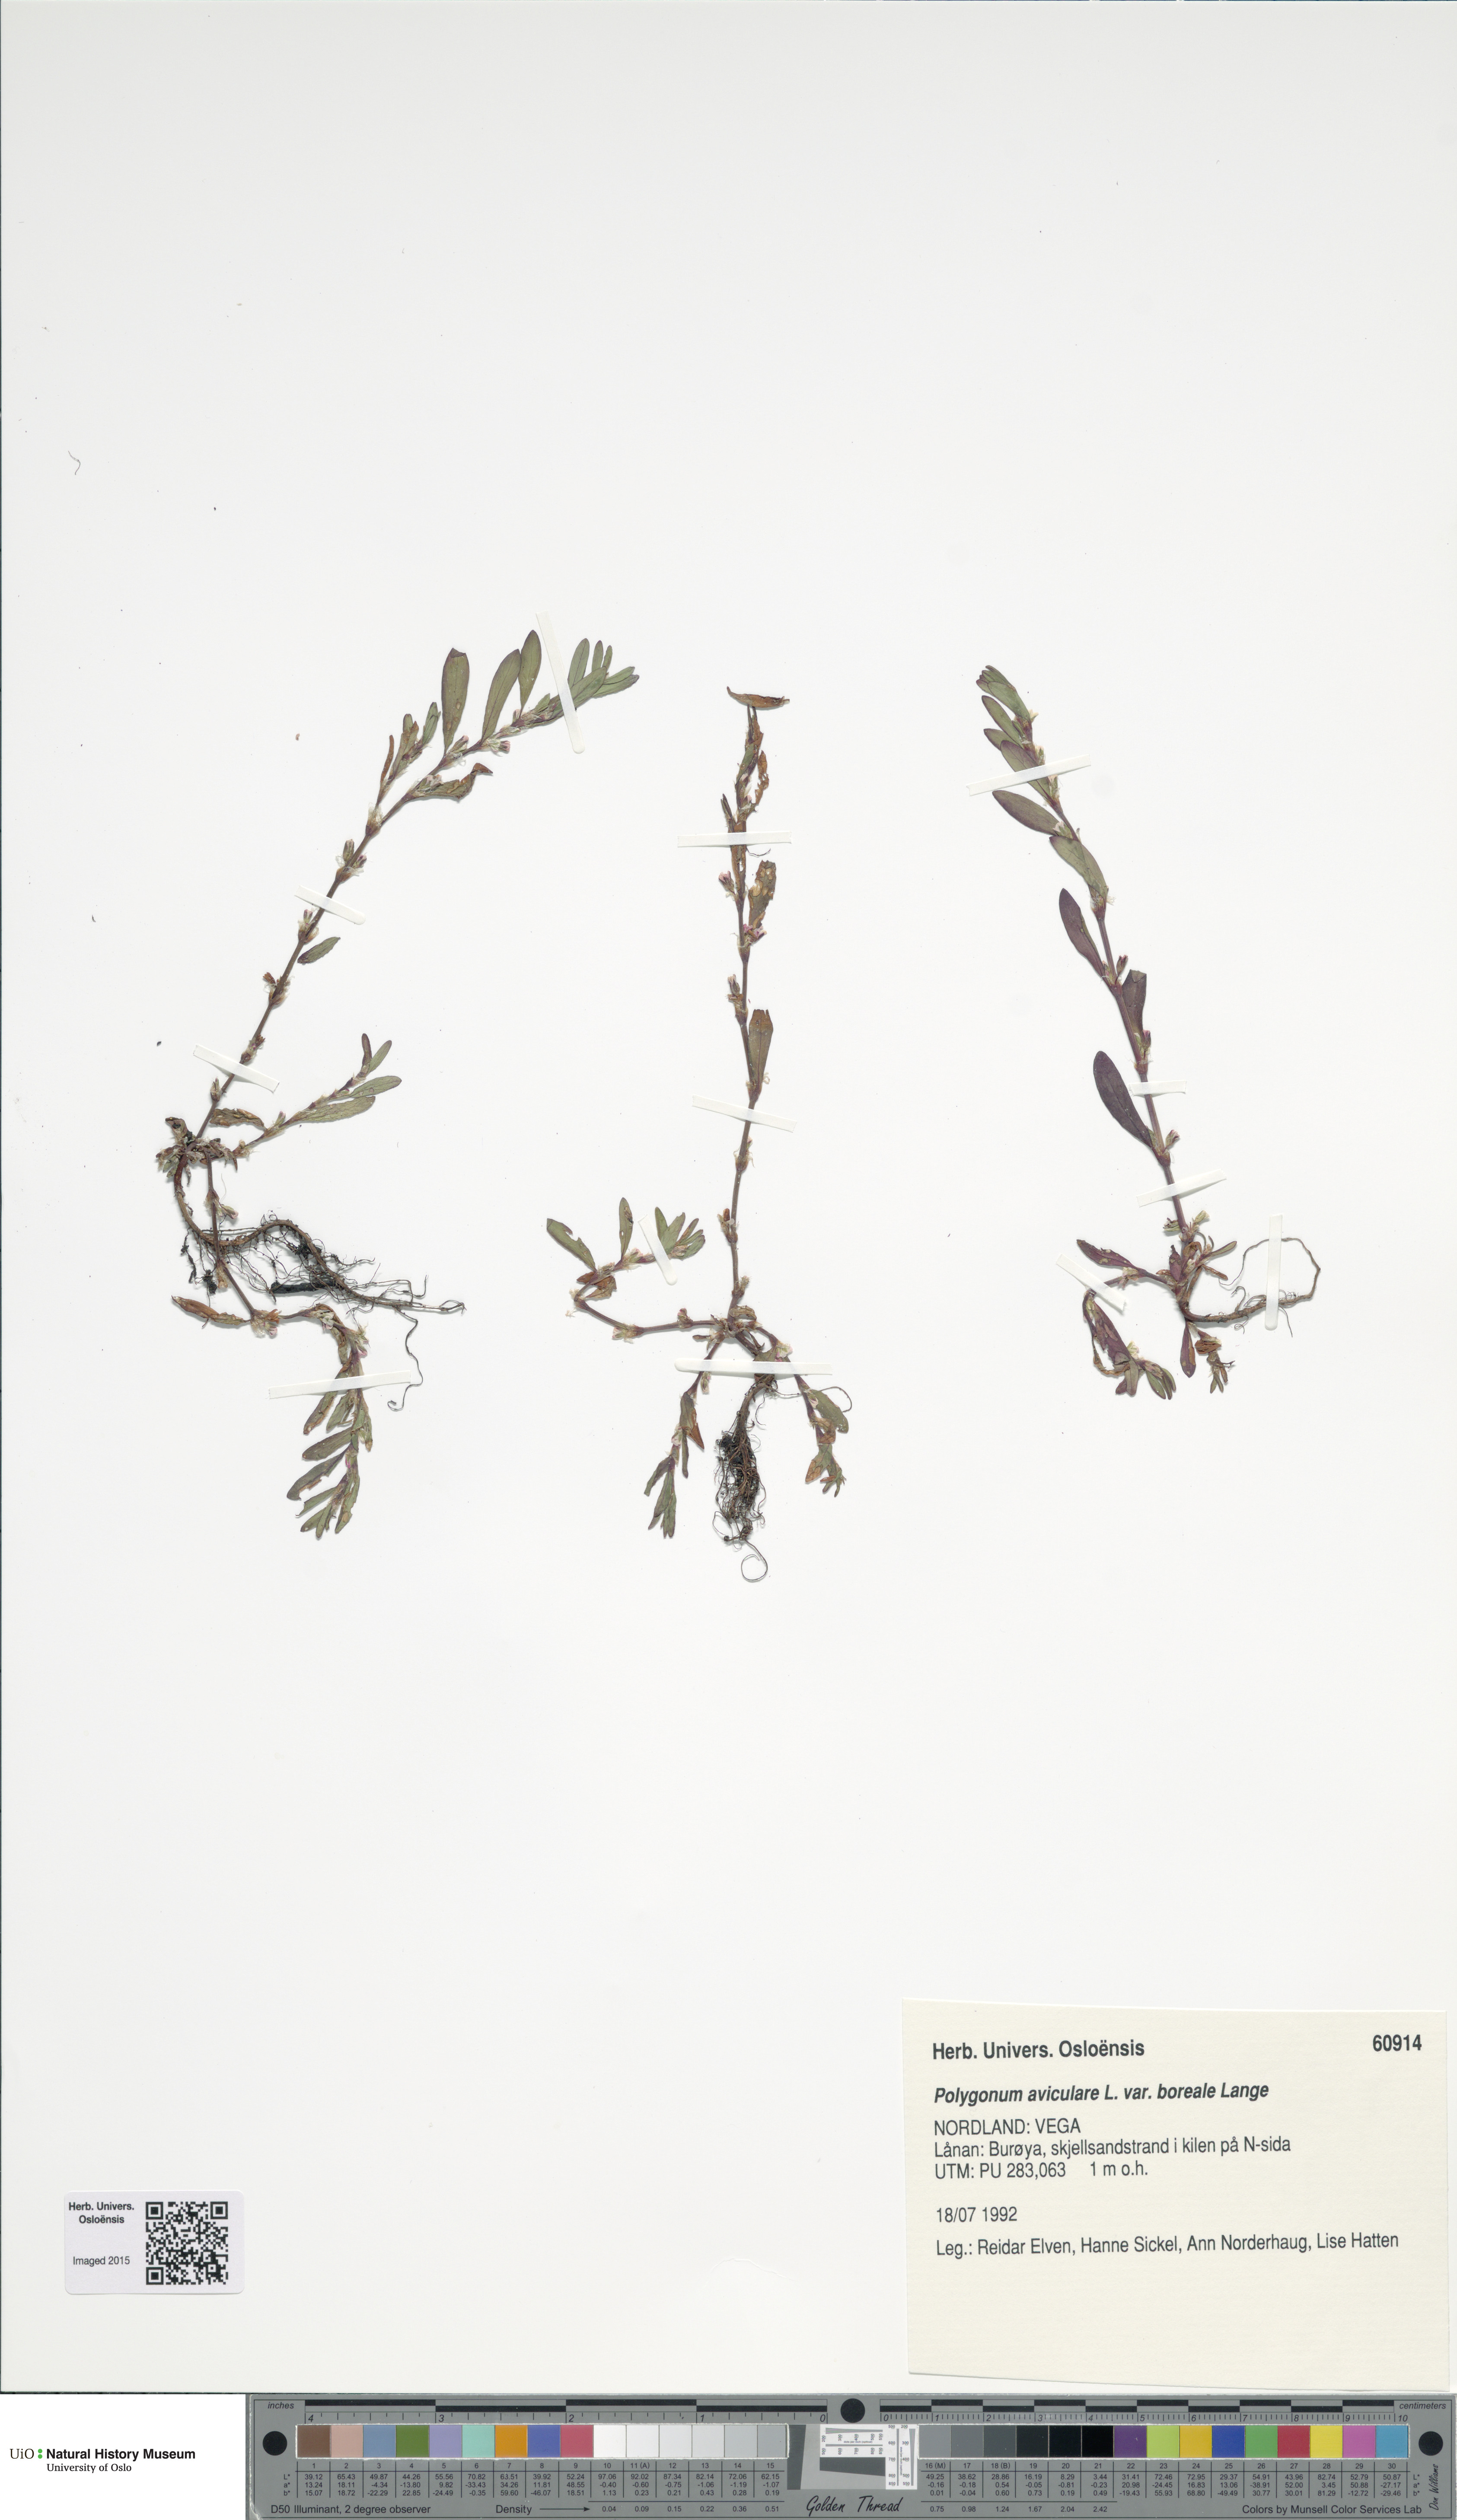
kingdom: Plantae
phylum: Tracheophyta
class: Magnoliopsida
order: Caryophyllales
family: Polygonaceae
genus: Polygonum
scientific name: Polygonum boreale
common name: Northern knotgrass
